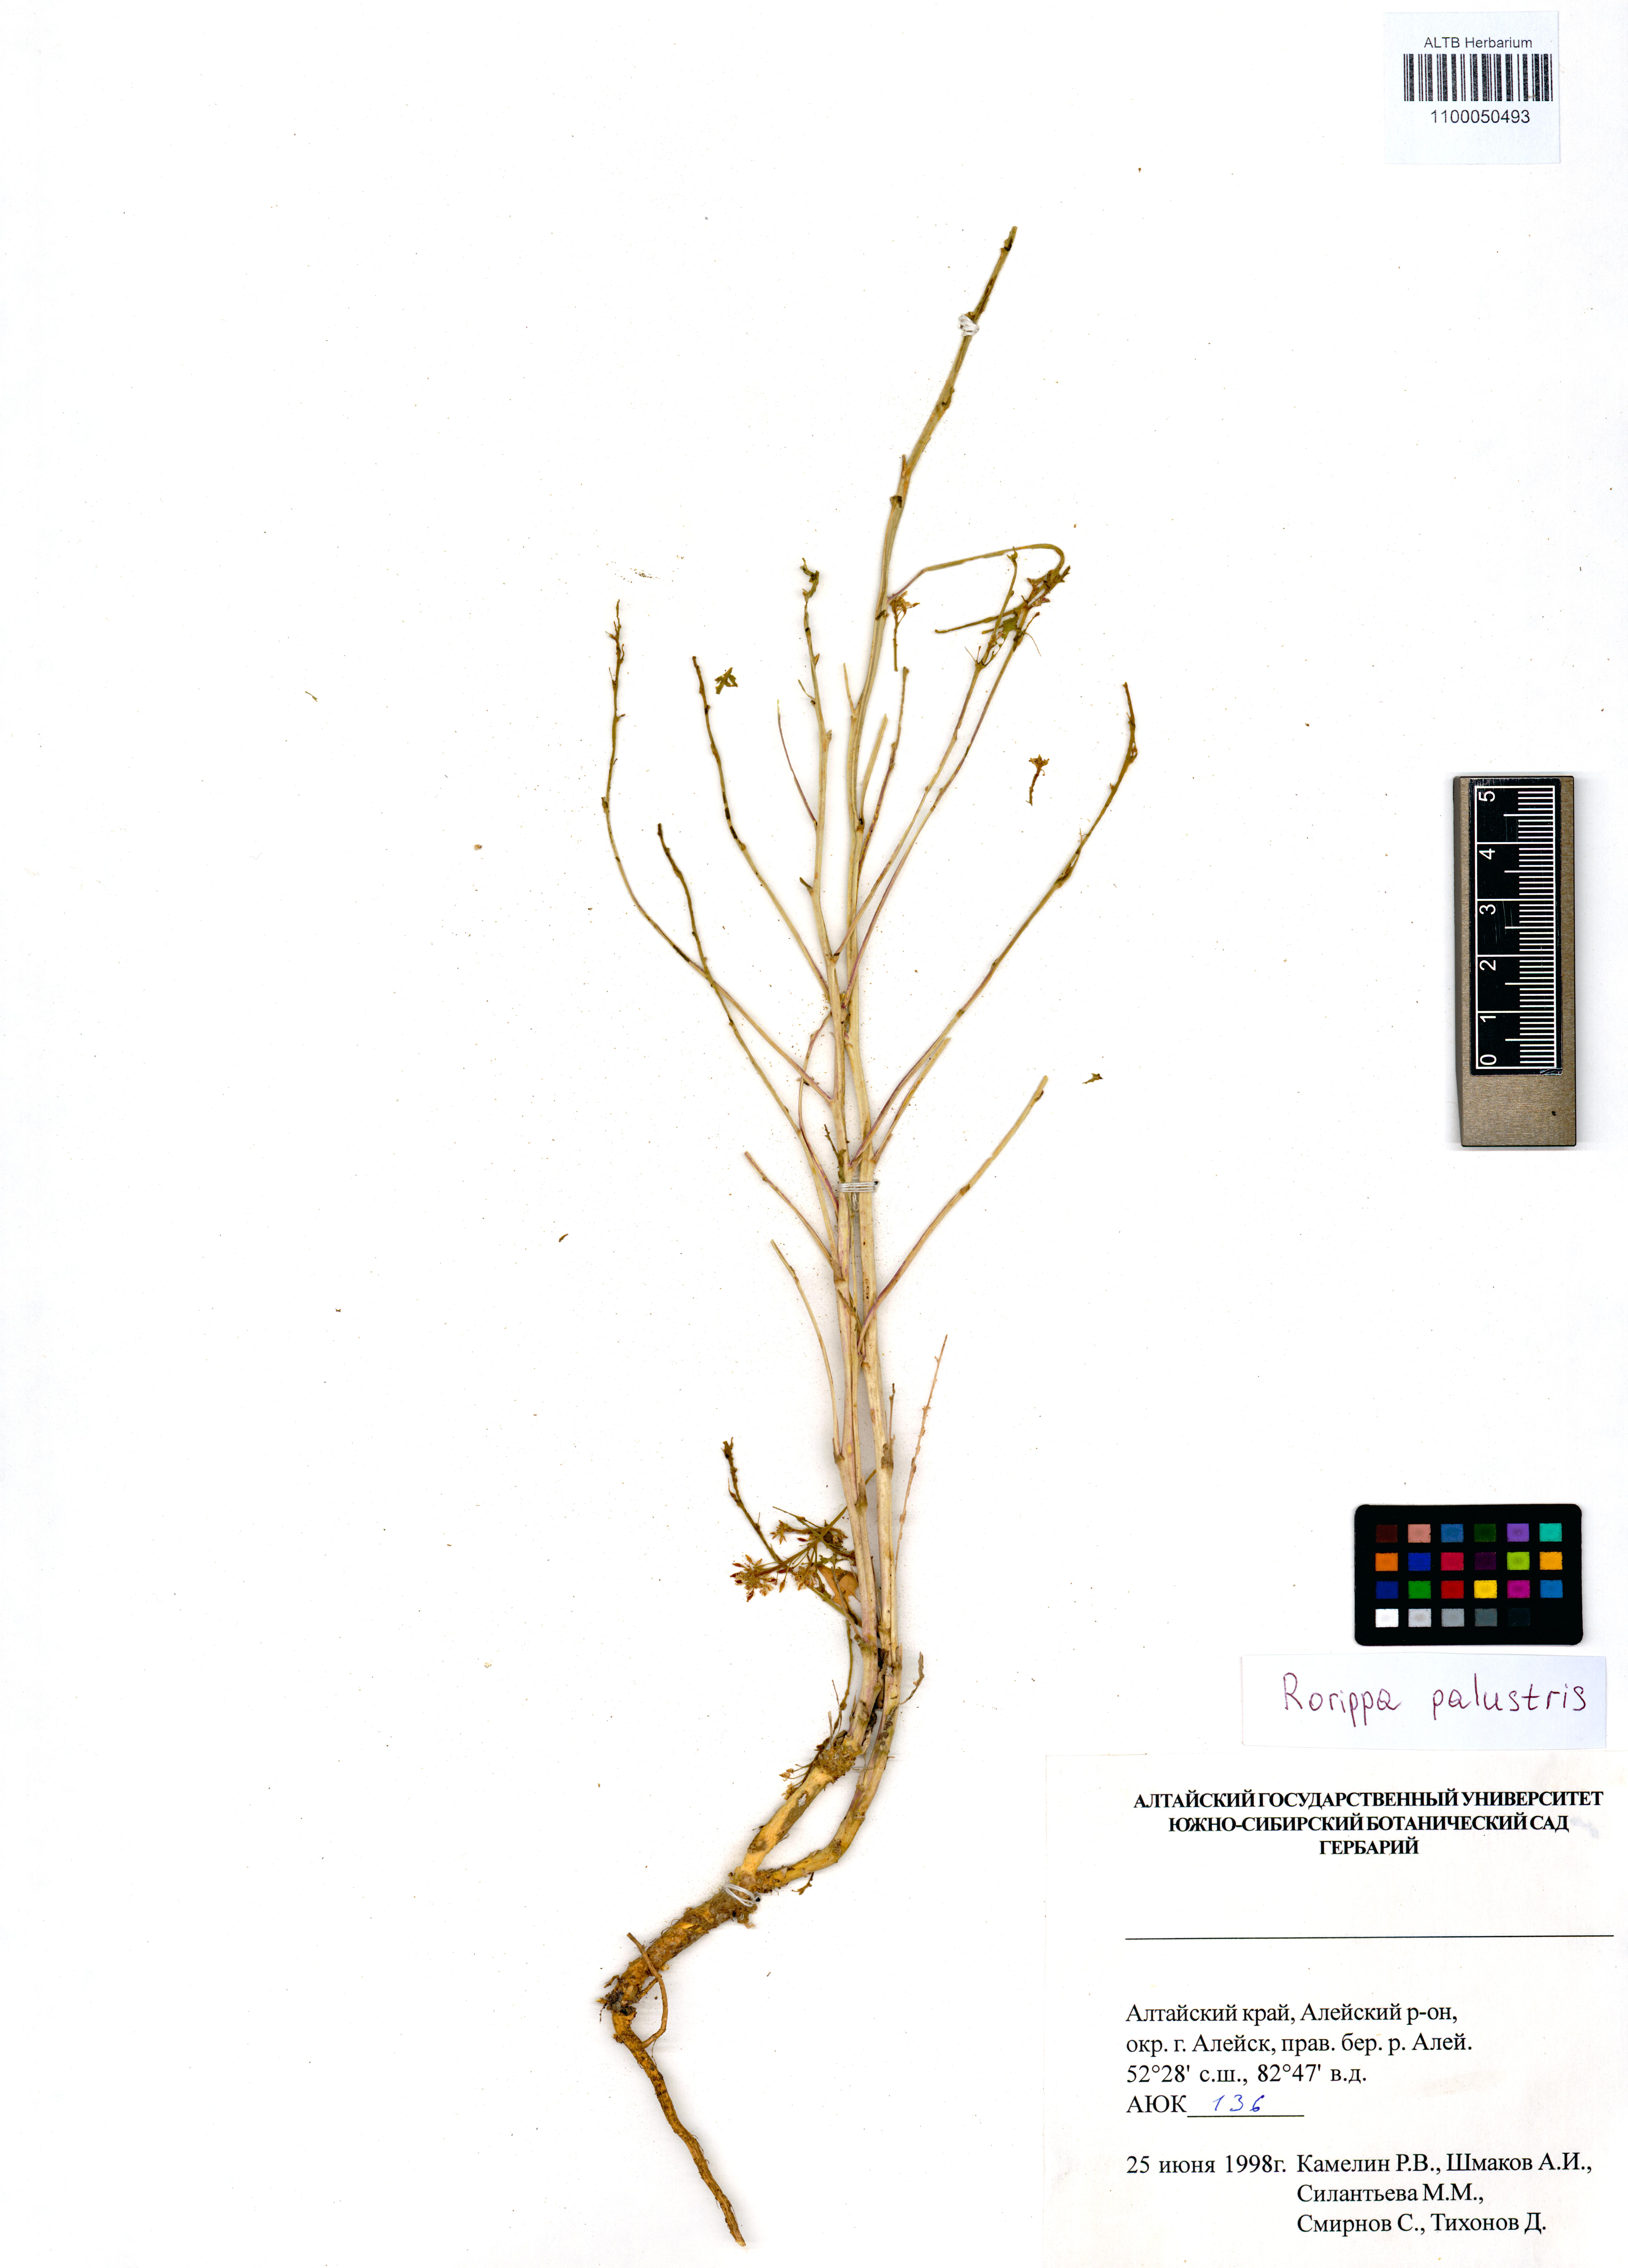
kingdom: Plantae
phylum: Tracheophyta
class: Magnoliopsida
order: Brassicales
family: Brassicaceae
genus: Rorippa
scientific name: Rorippa palustris
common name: Marsh yellow-cress
